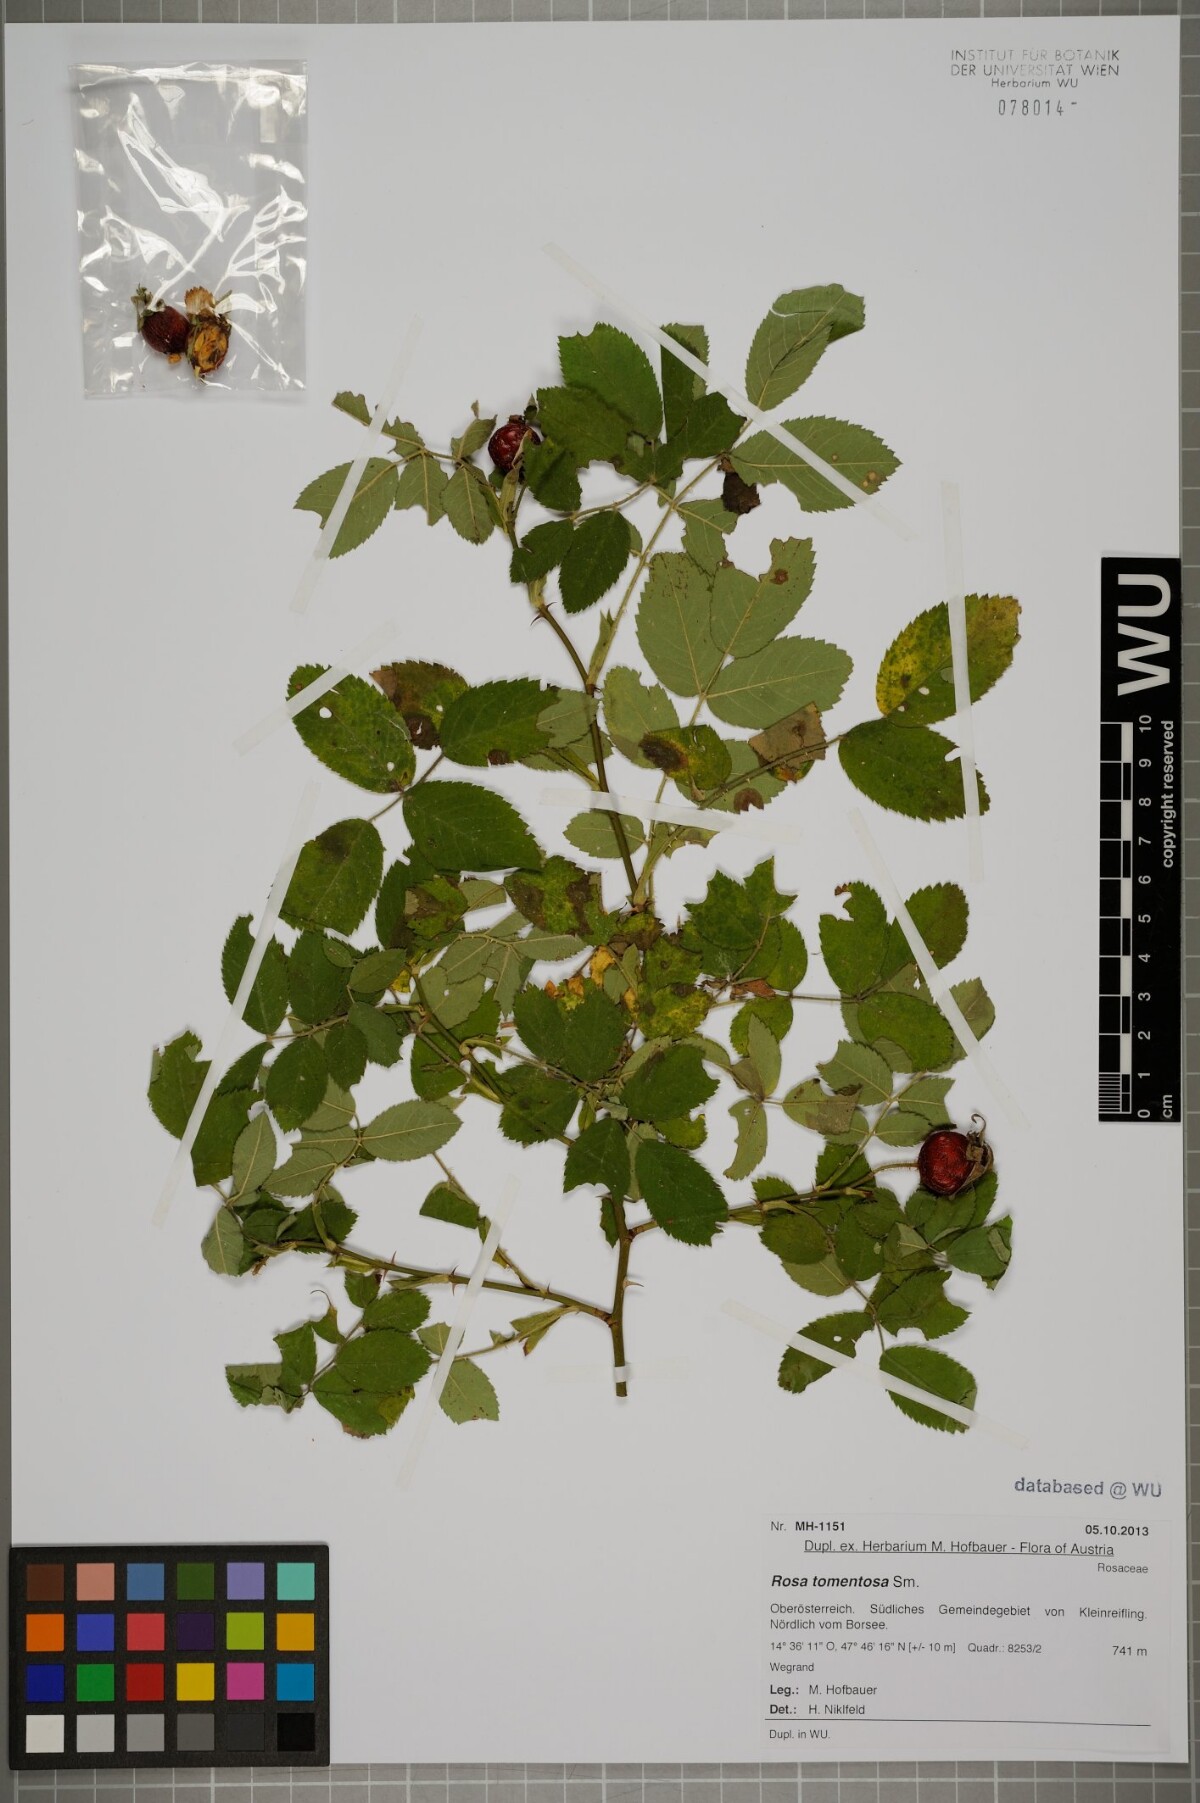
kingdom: Plantae
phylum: Tracheophyta
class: Magnoliopsida
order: Rosales
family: Rosaceae
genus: Rosa
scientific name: Rosa tomentosa
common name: Downy rose
